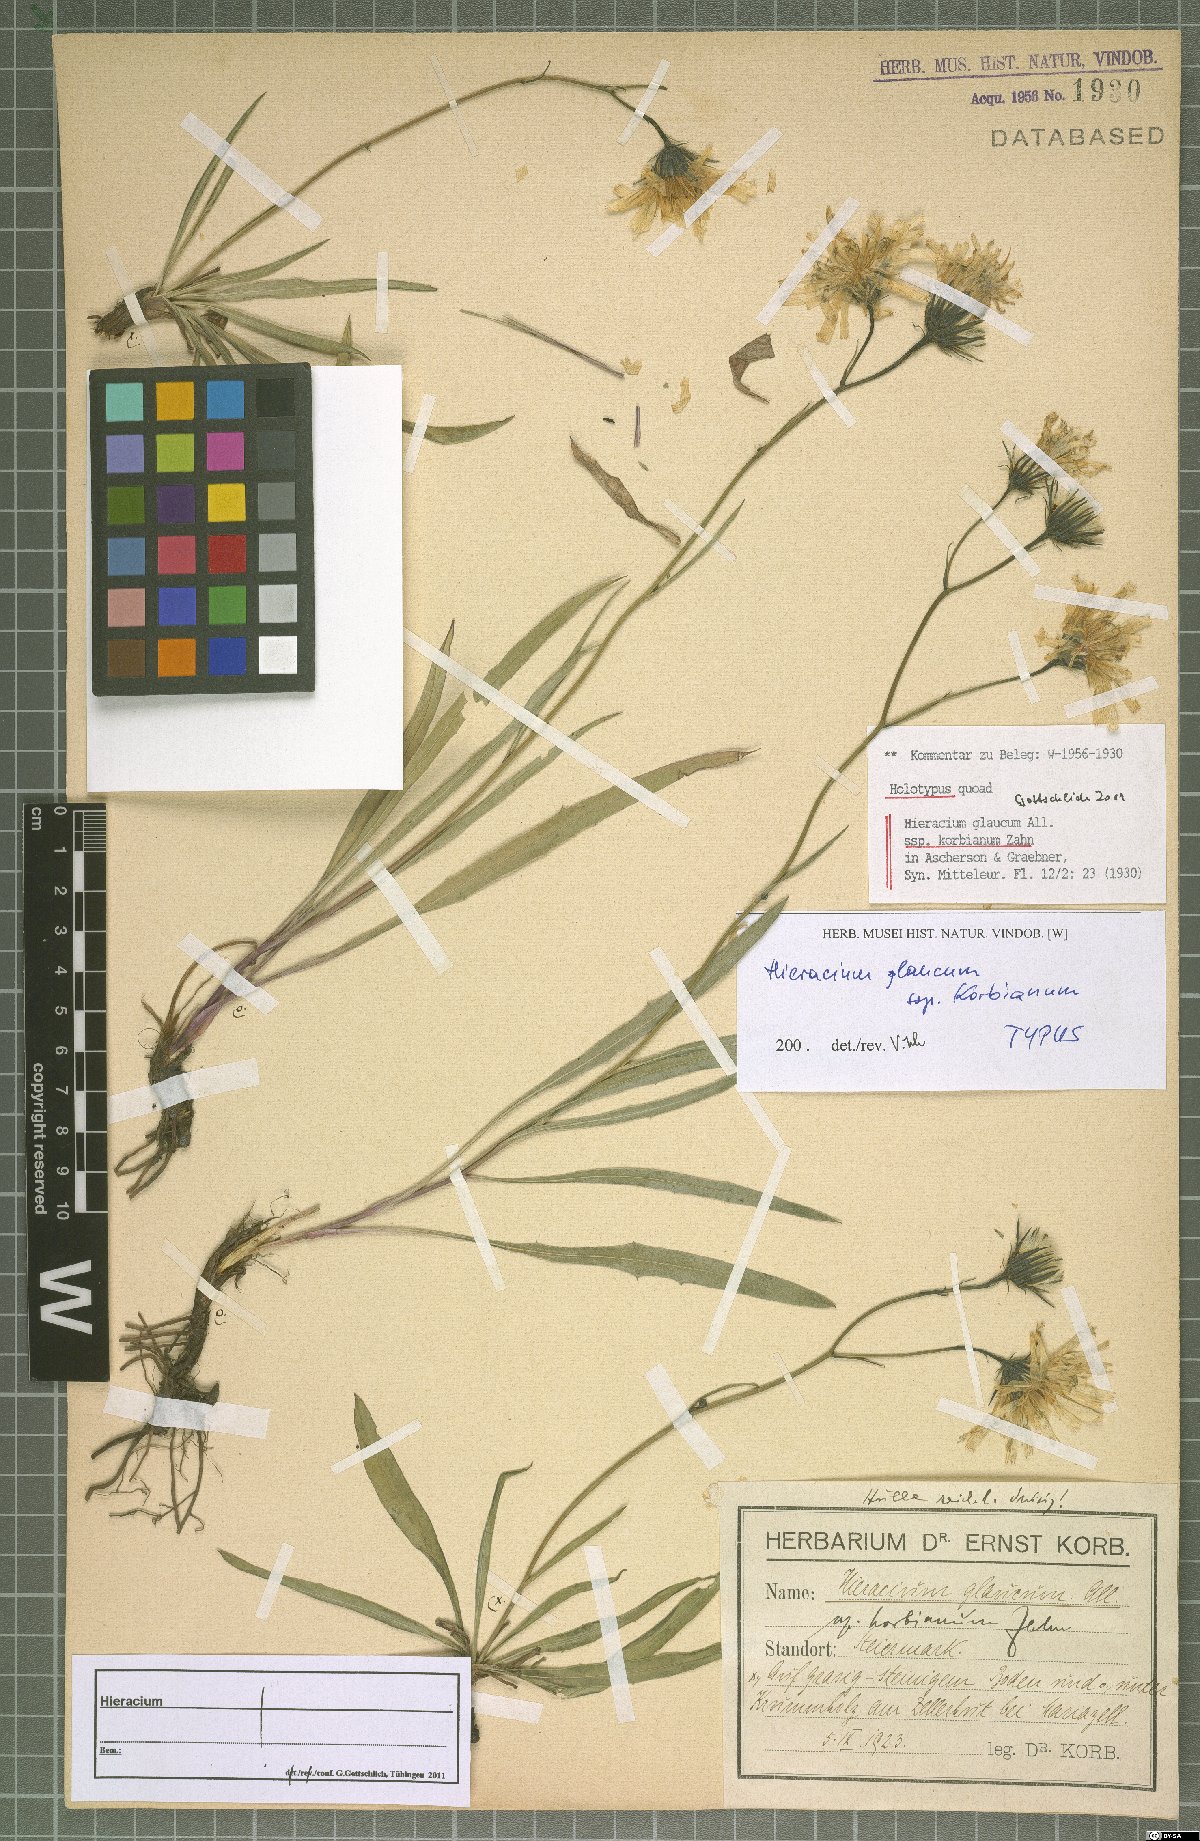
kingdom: Plantae
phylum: Tracheophyta
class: Magnoliopsida
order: Asterales
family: Asteraceae
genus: Hieracium
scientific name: Hieracium glaucum
